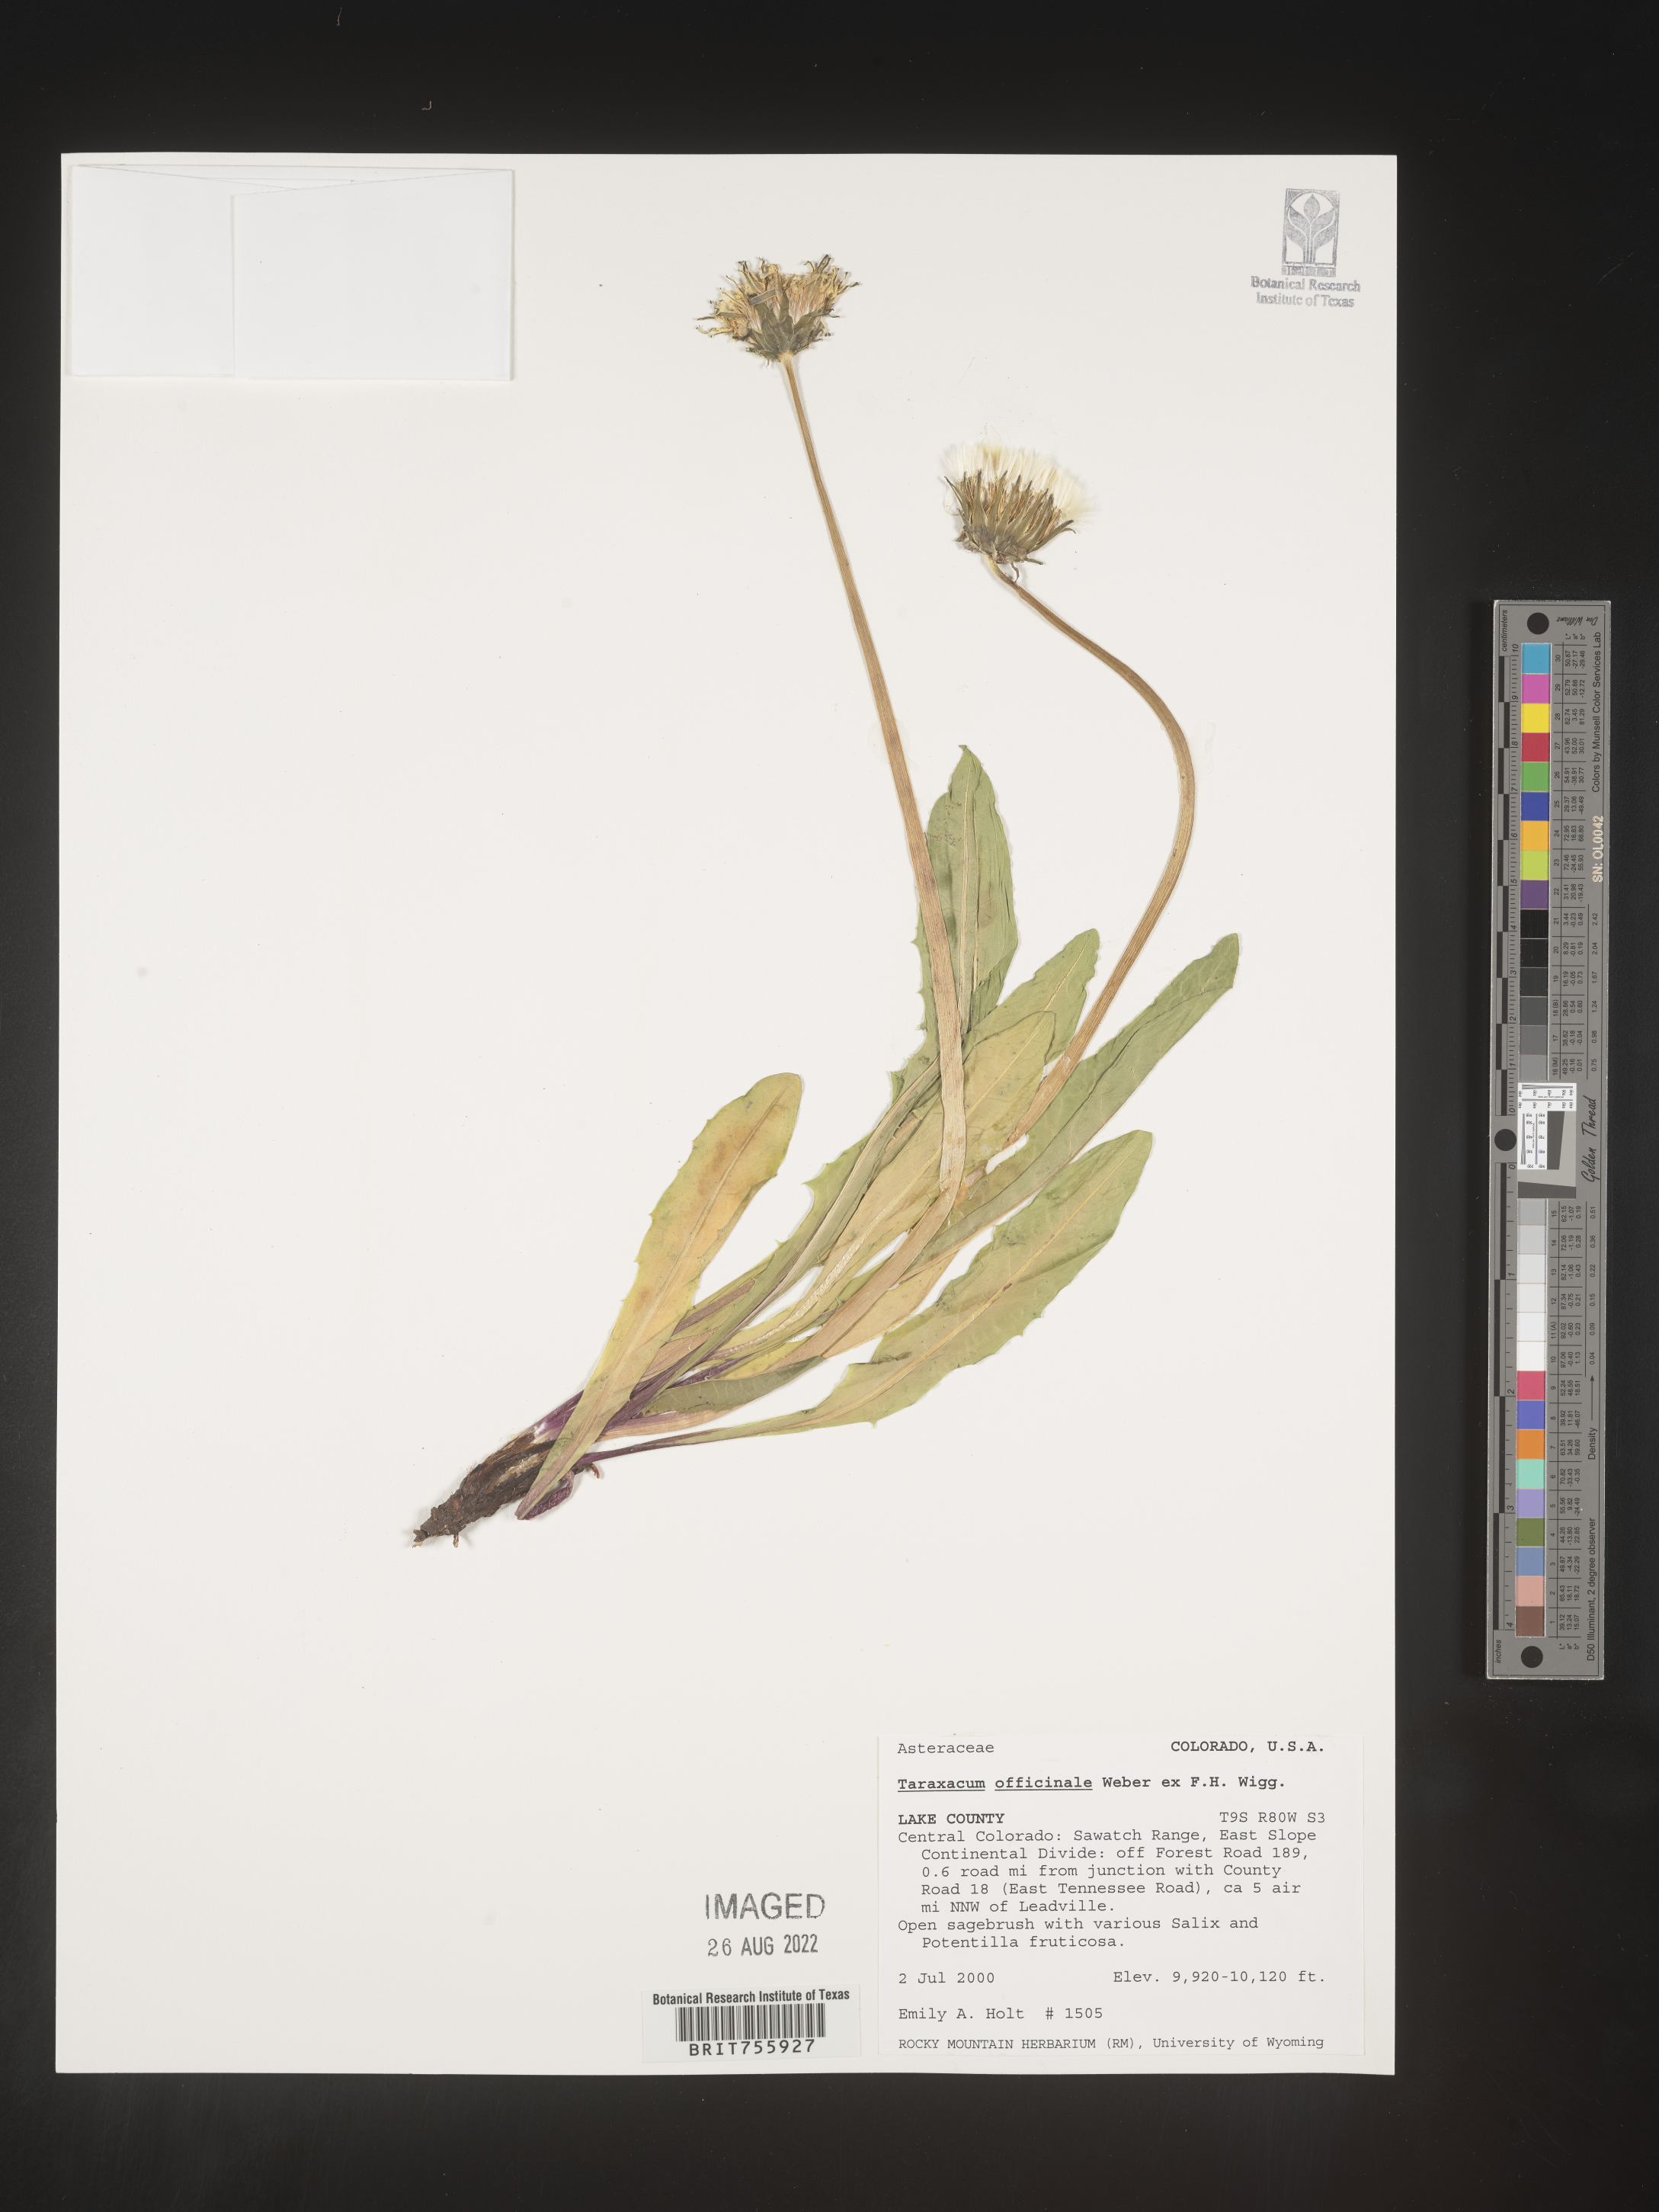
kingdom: Plantae
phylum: Tracheophyta
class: Magnoliopsida
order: Asterales
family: Asteraceae
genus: Taraxacum
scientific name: Taraxacum officinale
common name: Common dandelion
